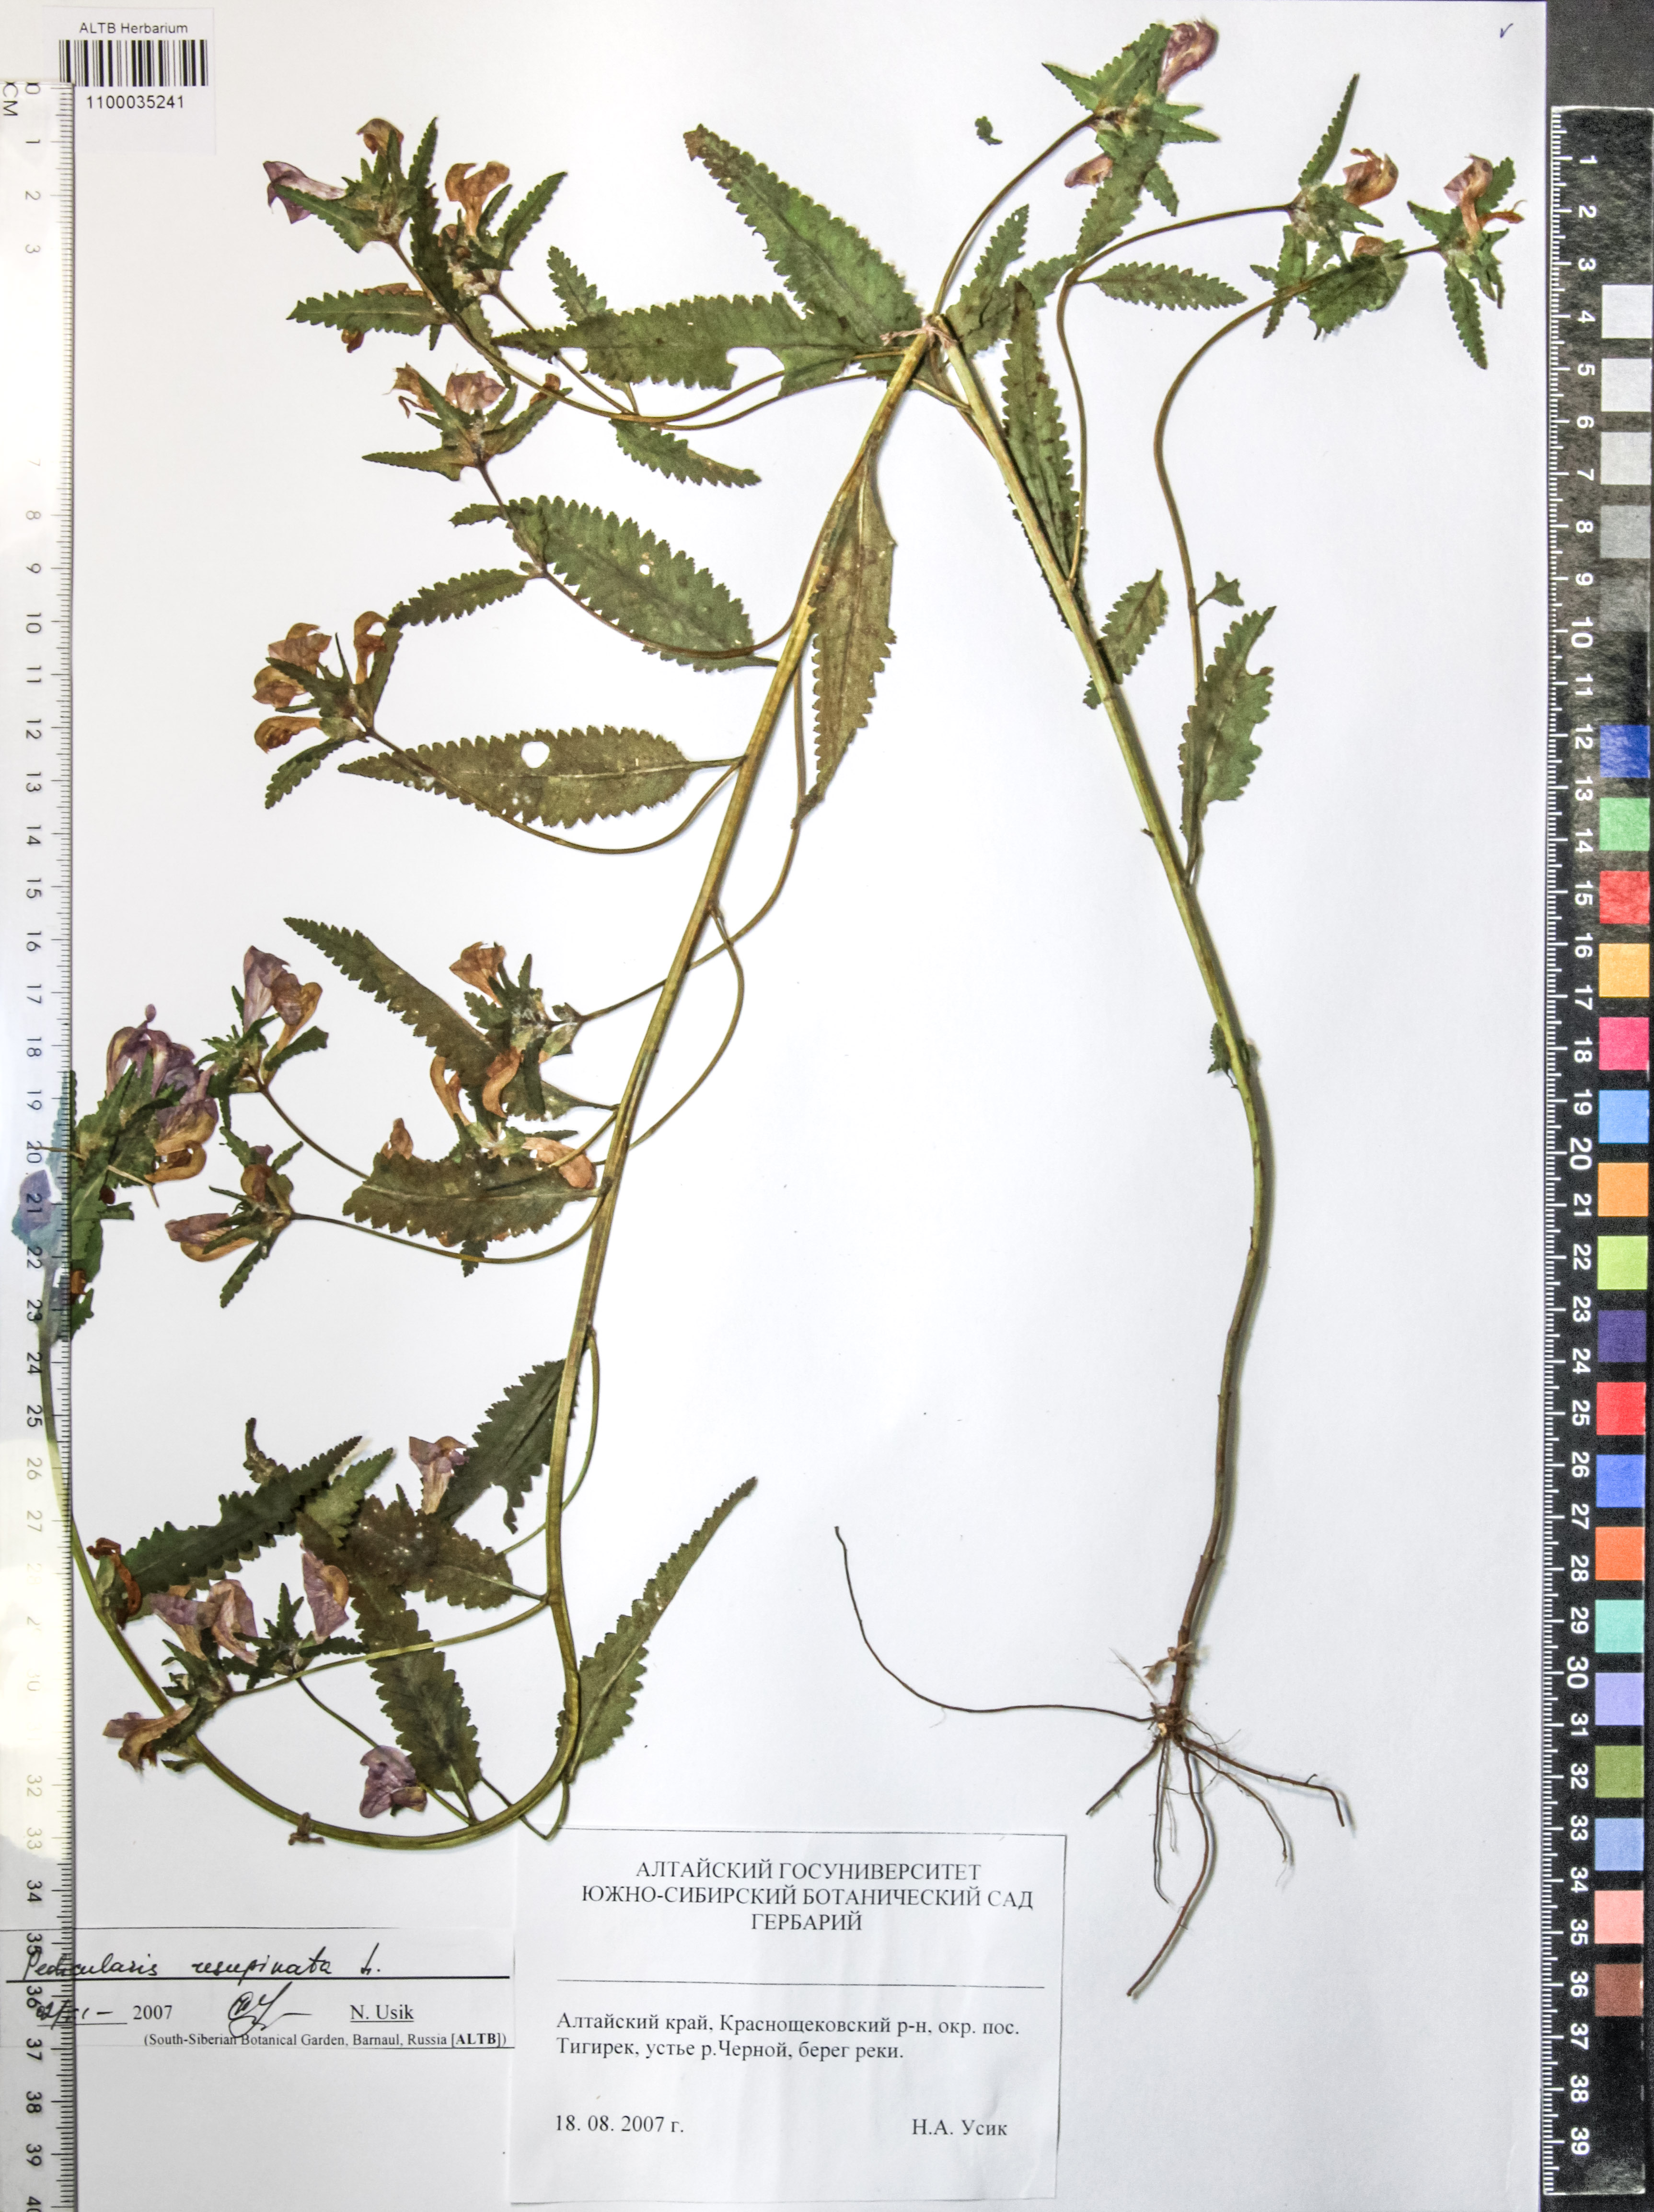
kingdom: Plantae
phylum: Tracheophyta
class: Magnoliopsida
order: Lamiales
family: Orobanchaceae
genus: Pedicularis
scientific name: Pedicularis resupinata
